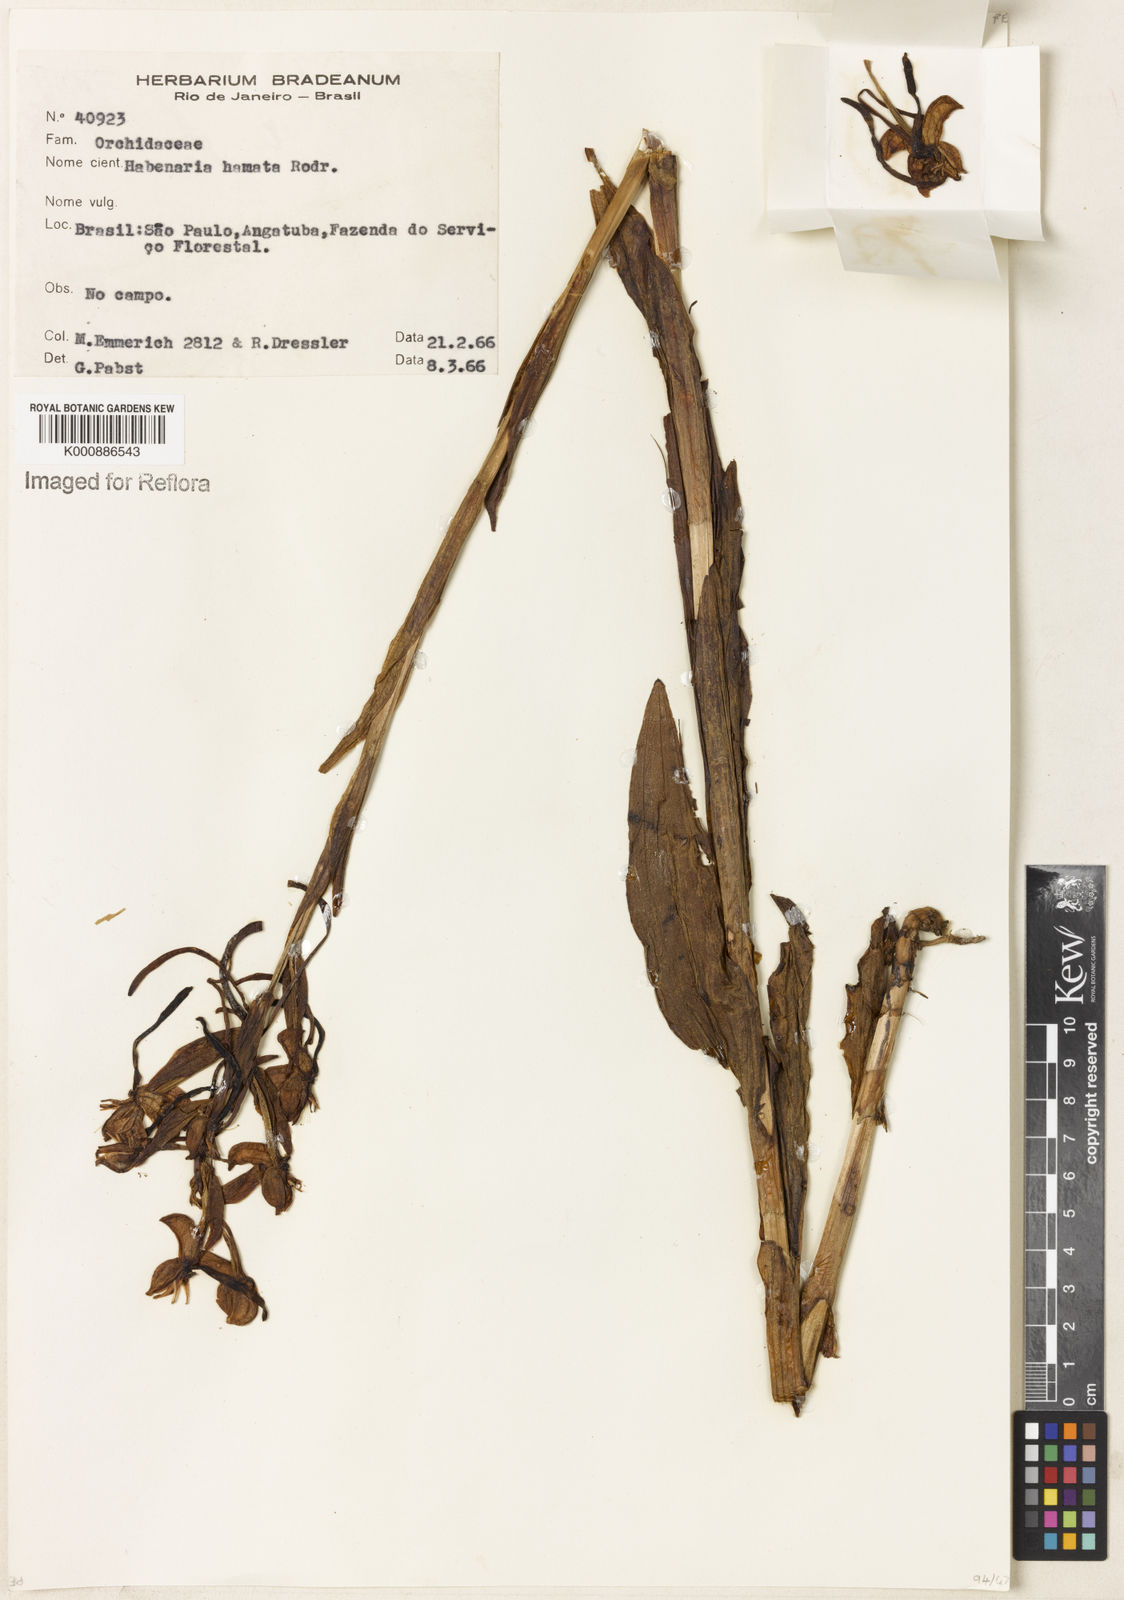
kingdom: Plantae
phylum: Tracheophyta
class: Liliopsida
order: Asparagales
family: Orchidaceae
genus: Habenaria
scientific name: Habenaria hamata
